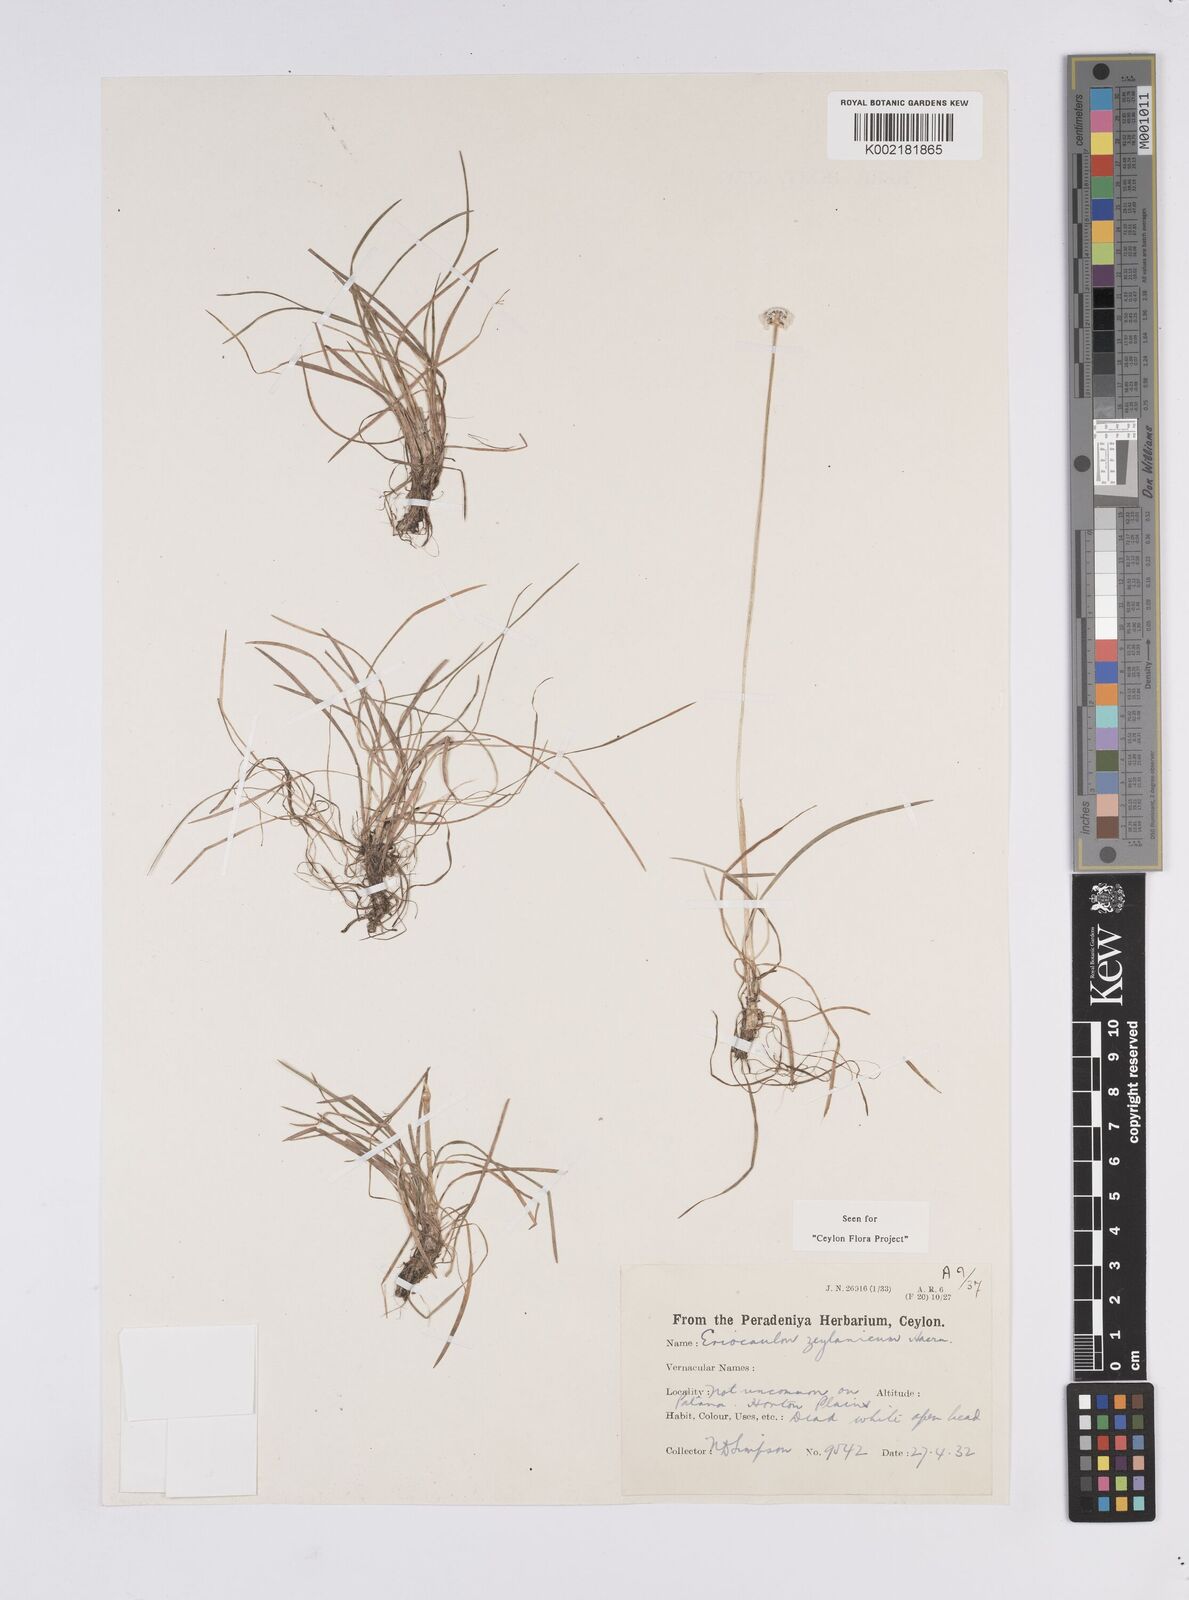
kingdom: Plantae
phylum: Tracheophyta
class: Liliopsida
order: Poales
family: Eriocaulaceae
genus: Eriocaulon
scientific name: Eriocaulon ceylanicum
